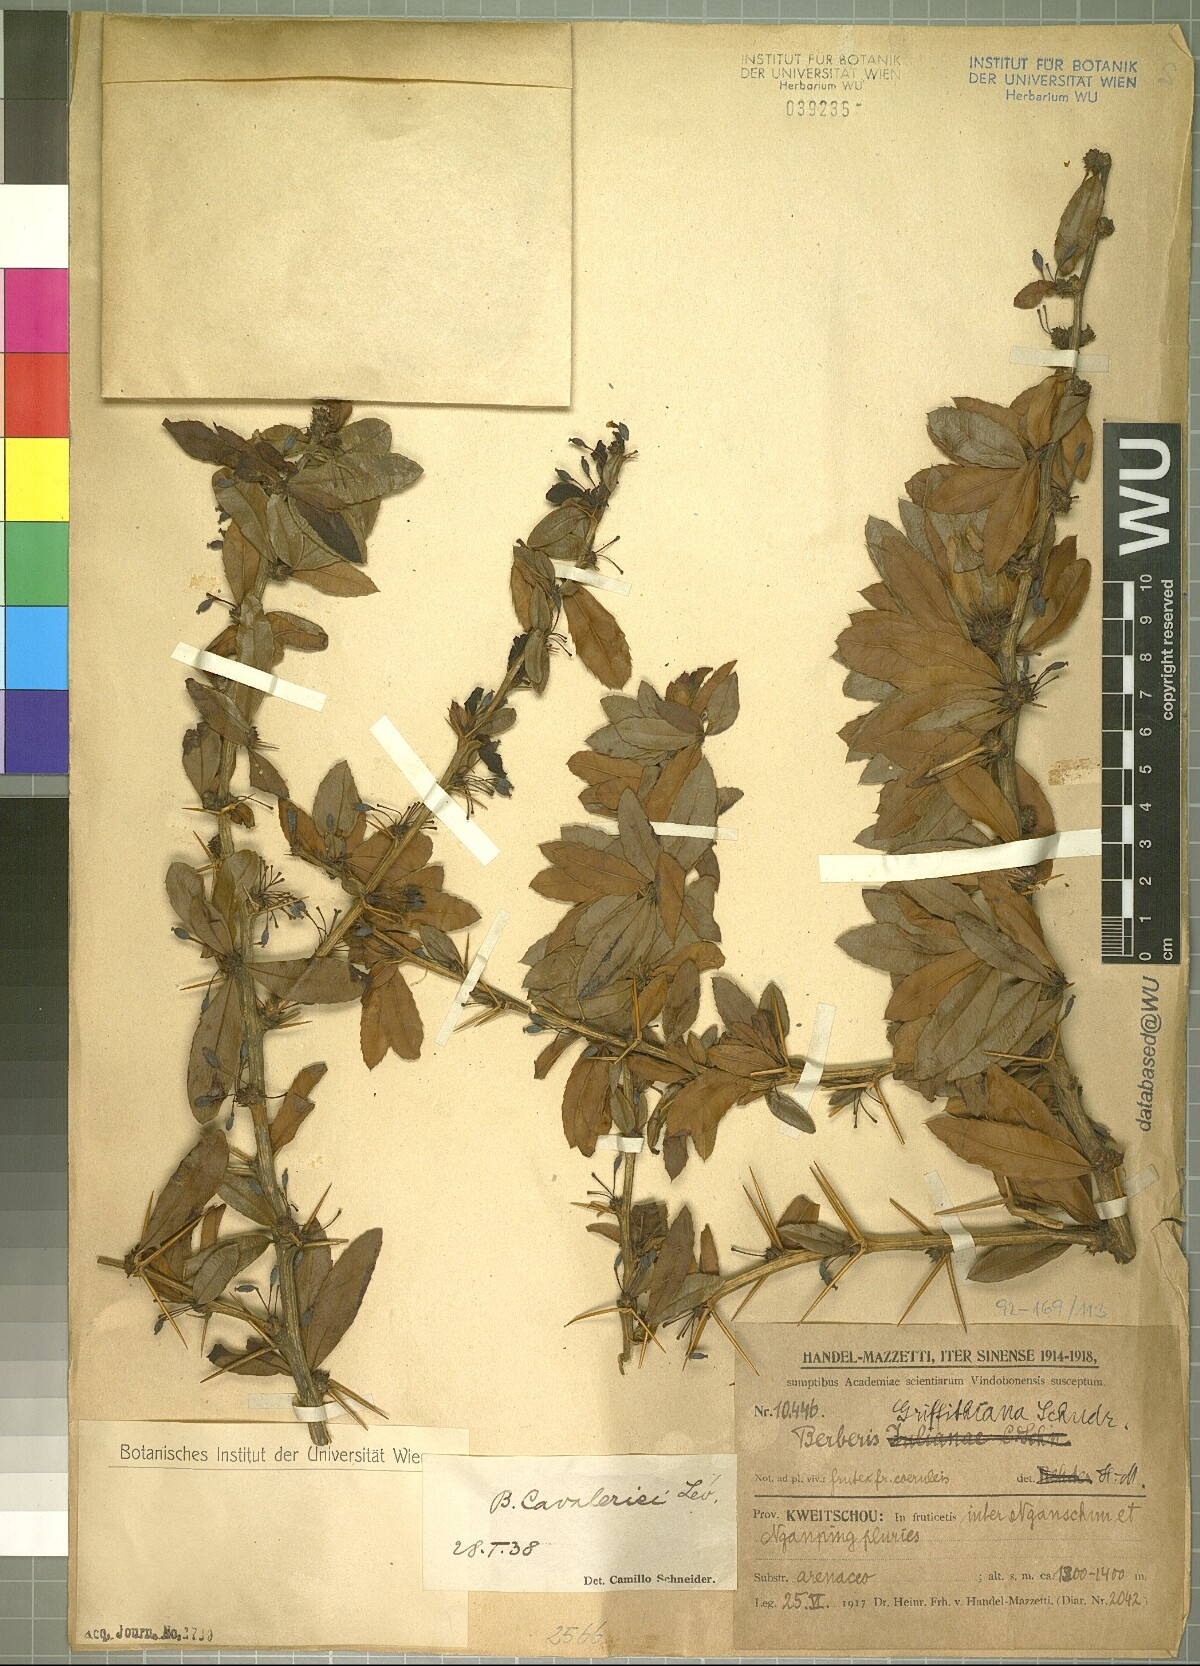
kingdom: Plantae
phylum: Tracheophyta
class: Magnoliopsida
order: Ranunculales
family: Berberidaceae
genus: Berberis
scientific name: Berberis cavaleriei
